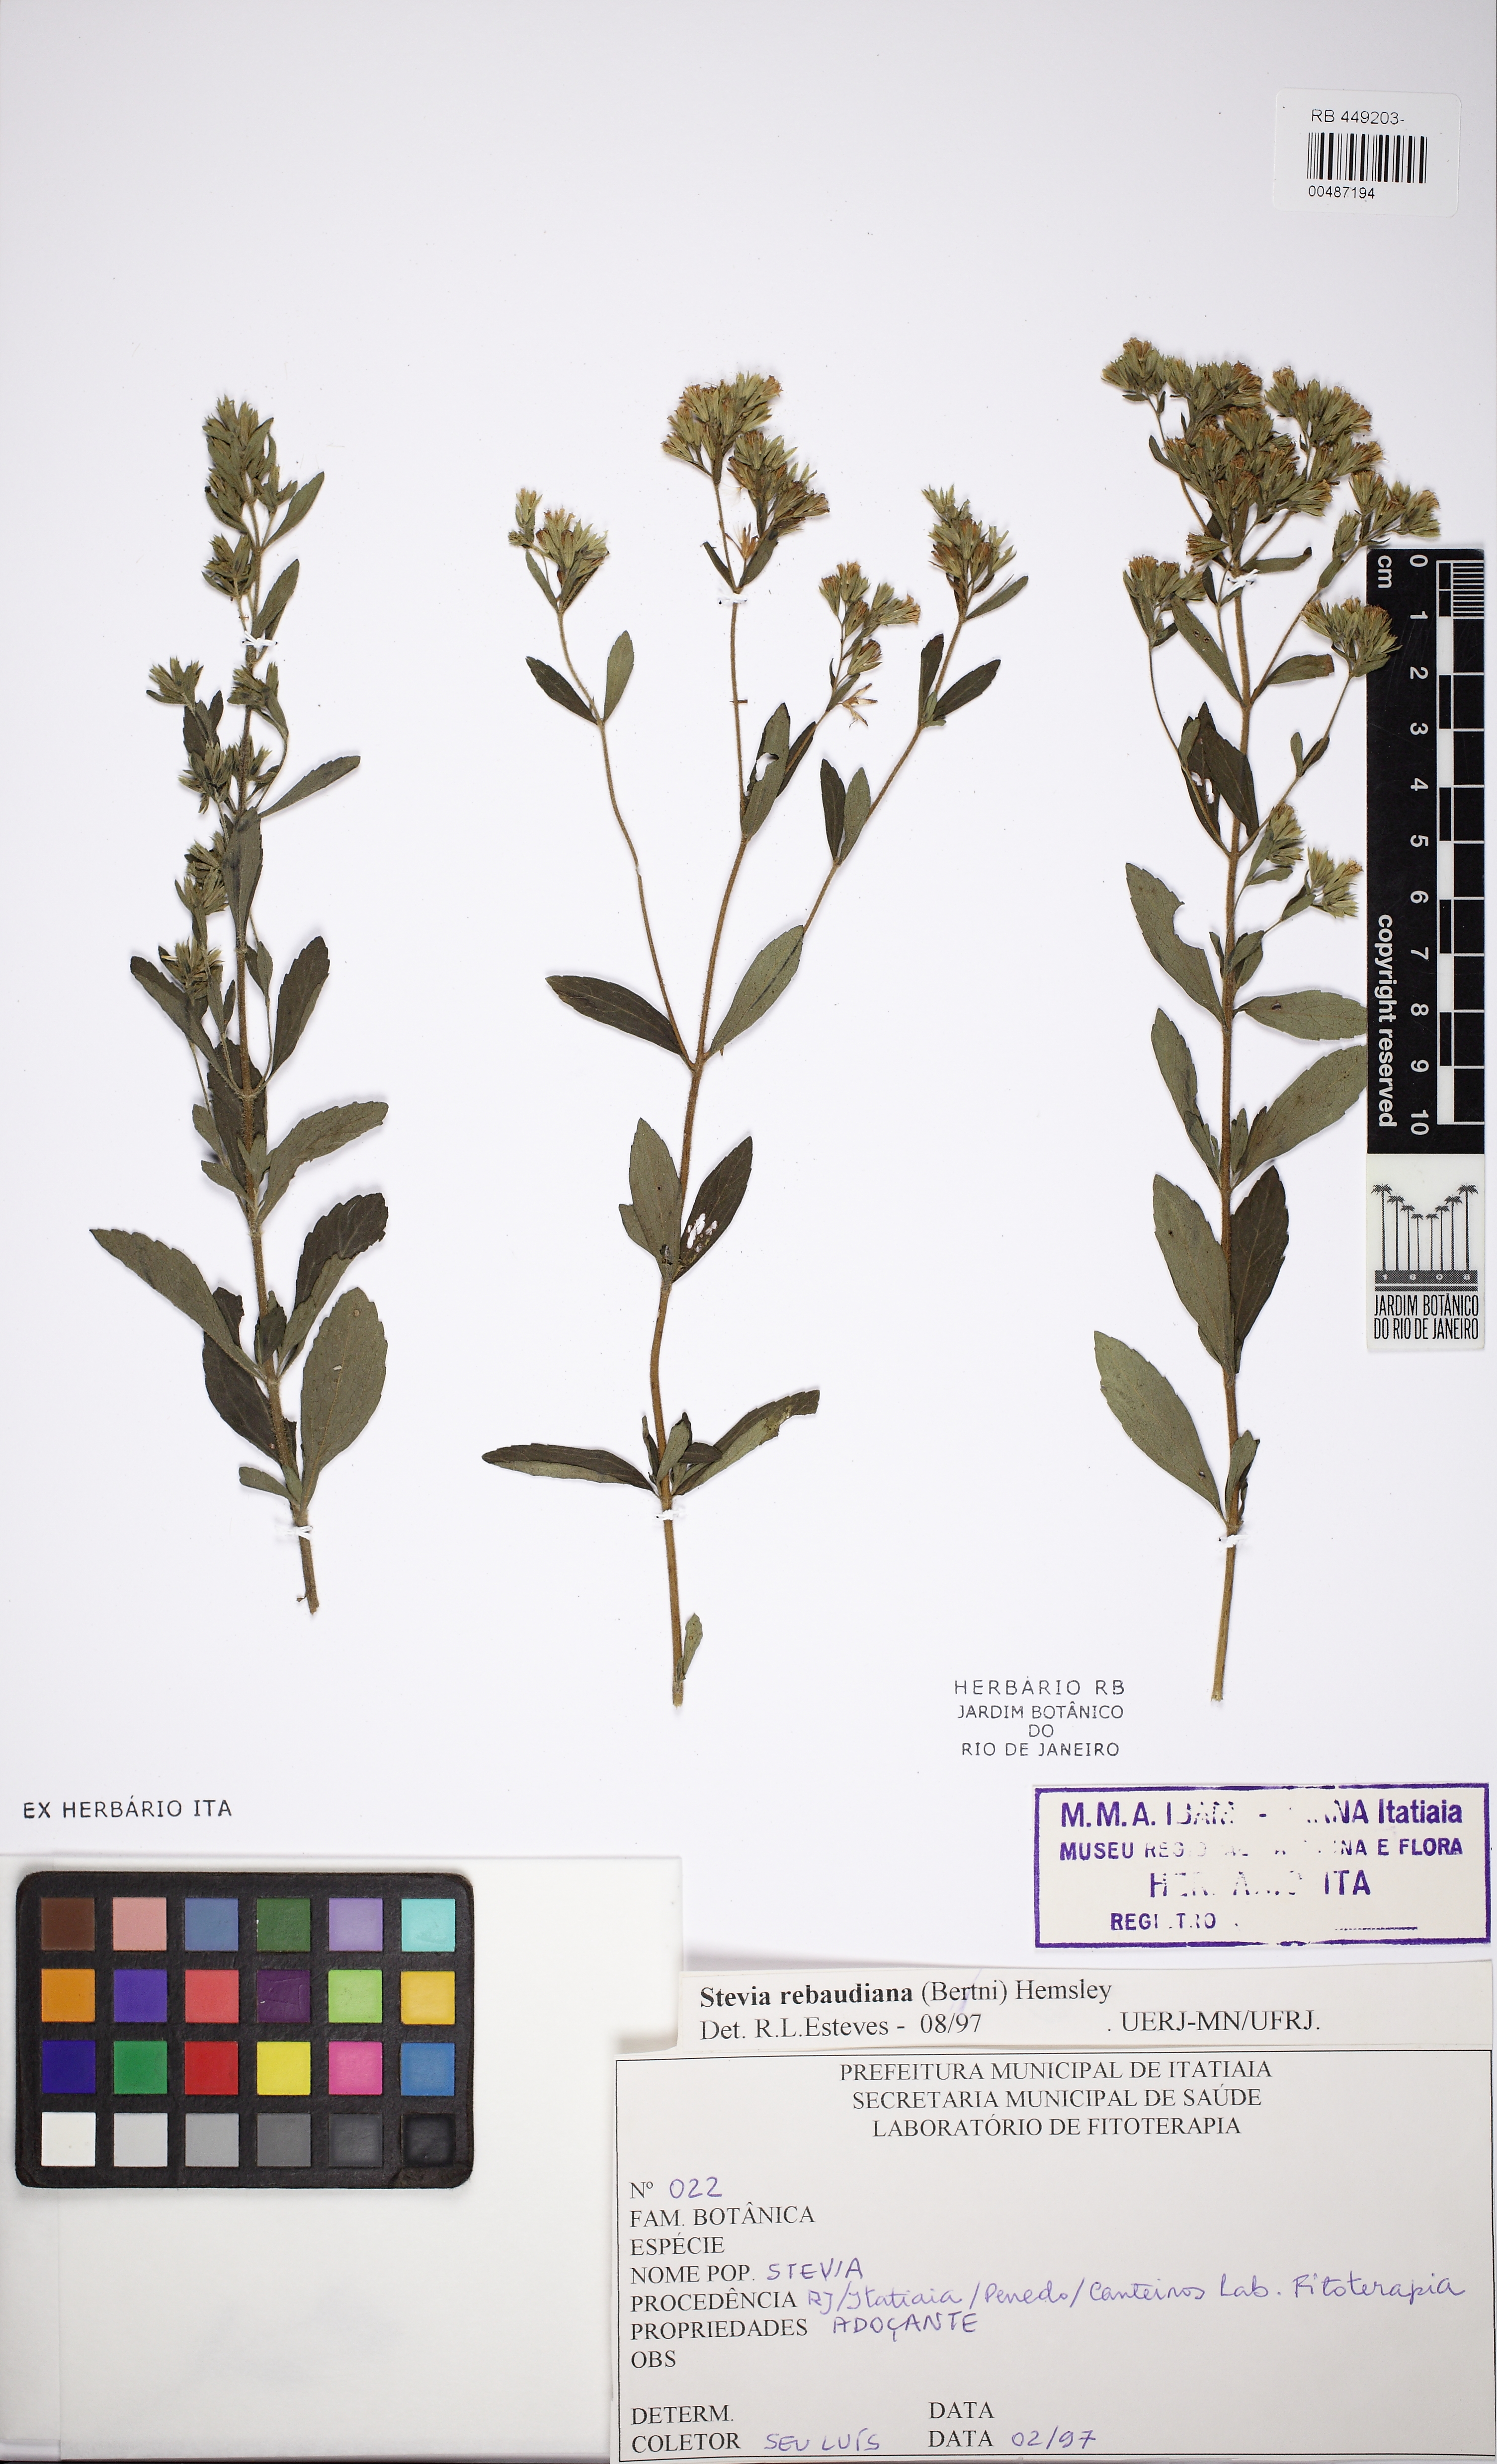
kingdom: Plantae
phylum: Tracheophyta
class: Magnoliopsida
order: Asterales
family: Asteraceae
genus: Stevia
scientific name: Stevia rebaudiana
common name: Stevia
